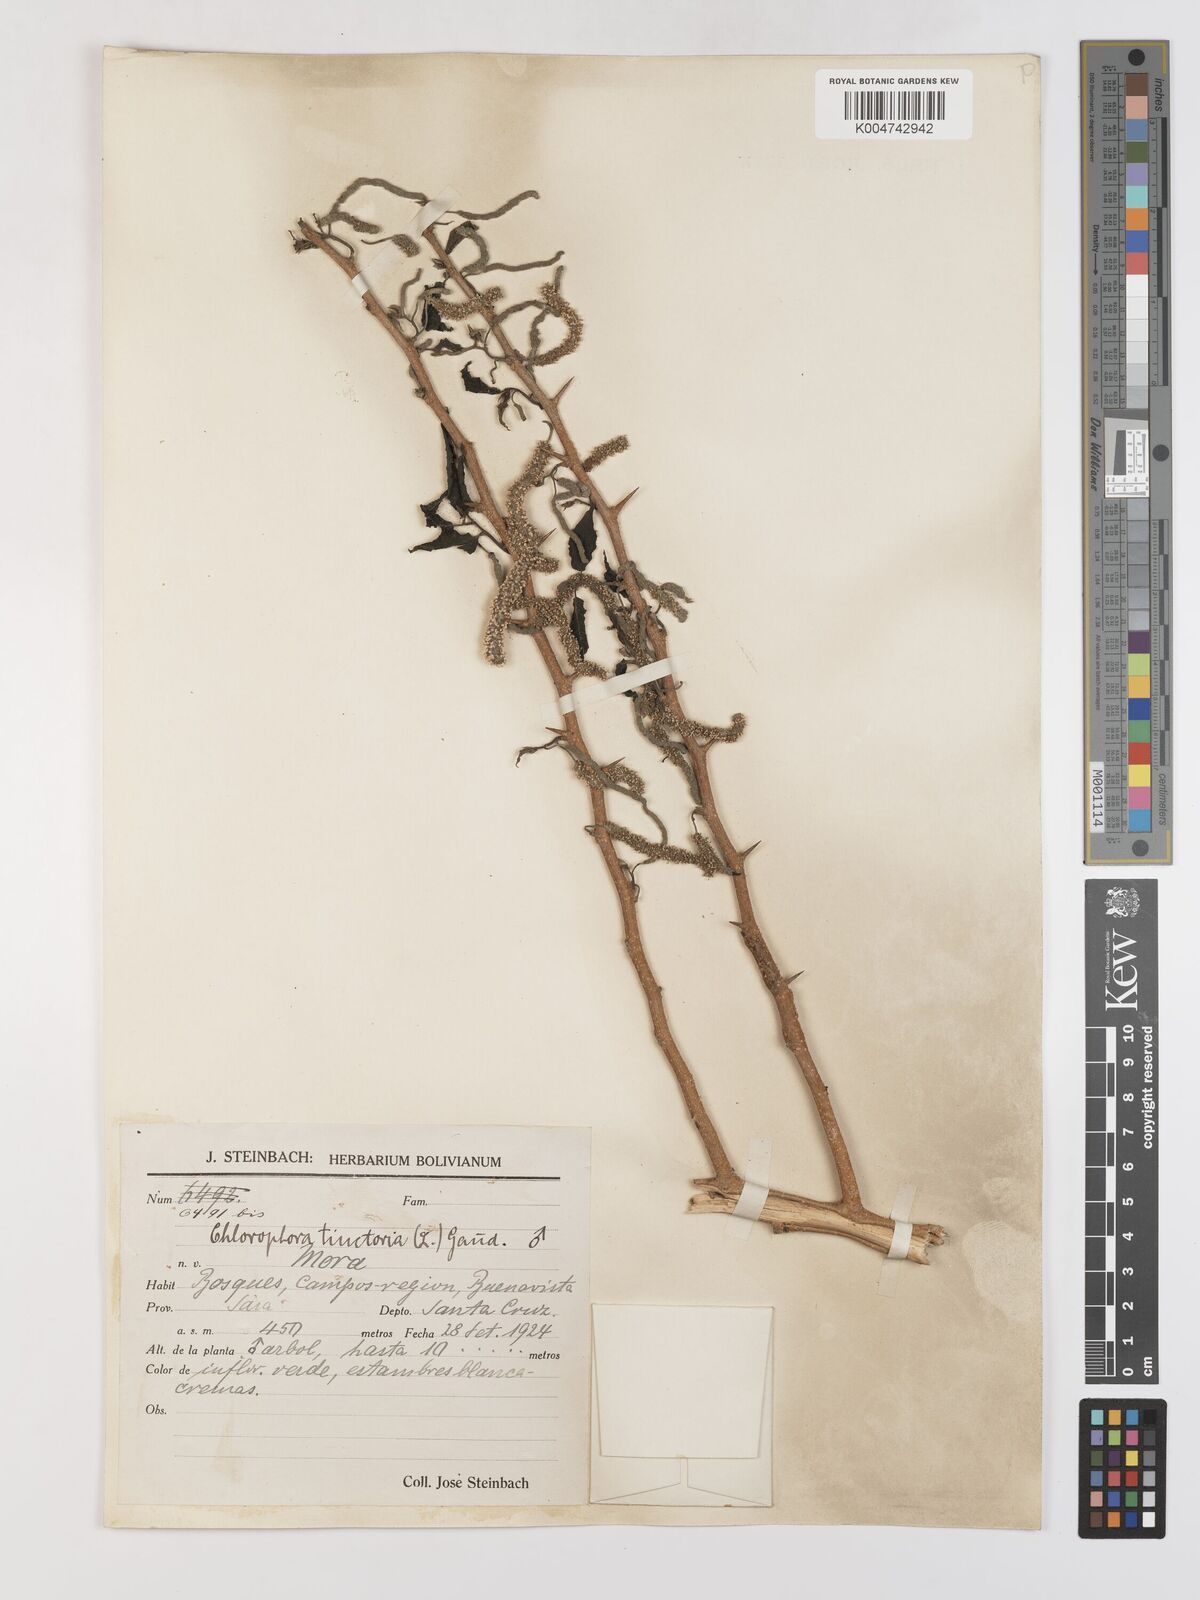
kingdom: Plantae
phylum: Tracheophyta
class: Magnoliopsida
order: Rosales
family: Moraceae
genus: Maclura
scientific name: Maclura tinctoria
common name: Old fustic
